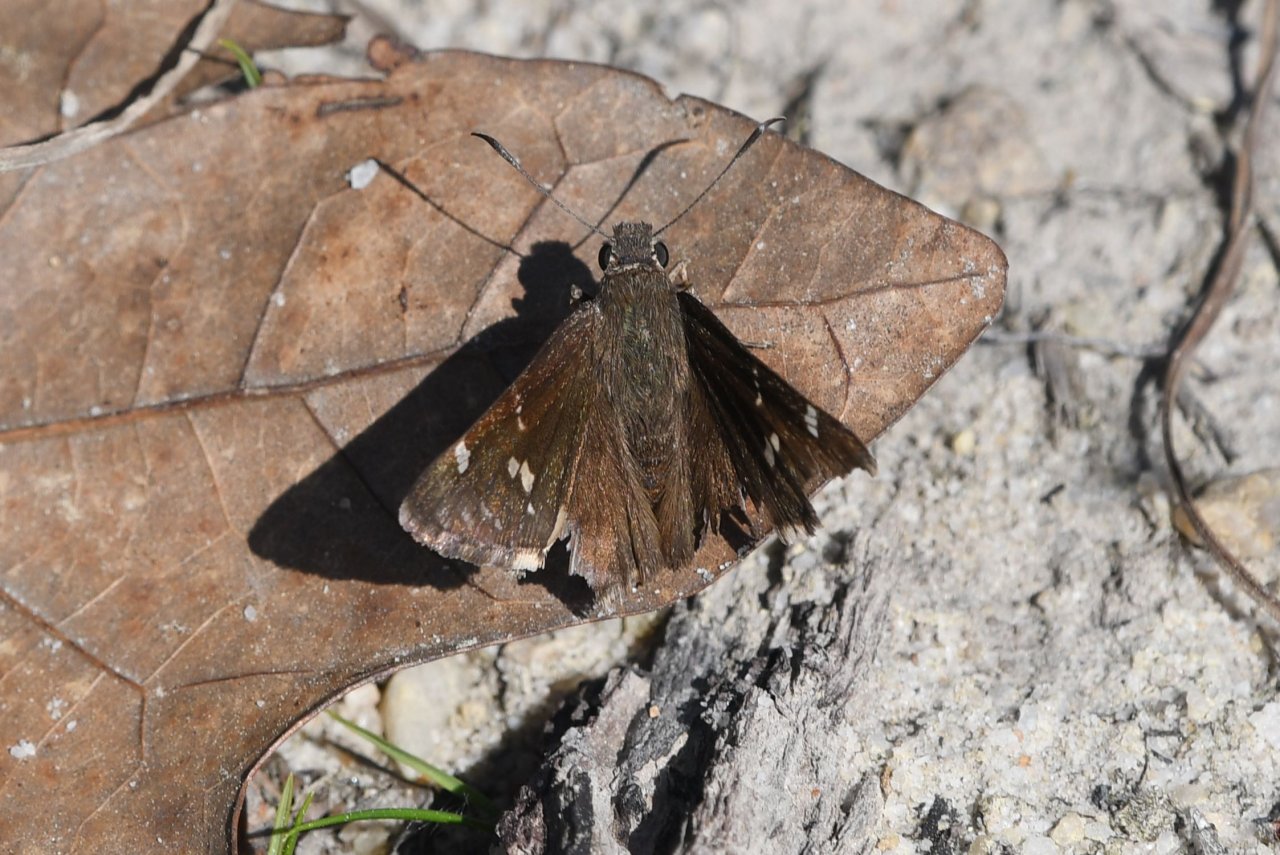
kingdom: Animalia
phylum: Arthropoda
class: Insecta
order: Lepidoptera
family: Hesperiidae
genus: Autochton
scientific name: Autochton
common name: Southern Cloudywing
